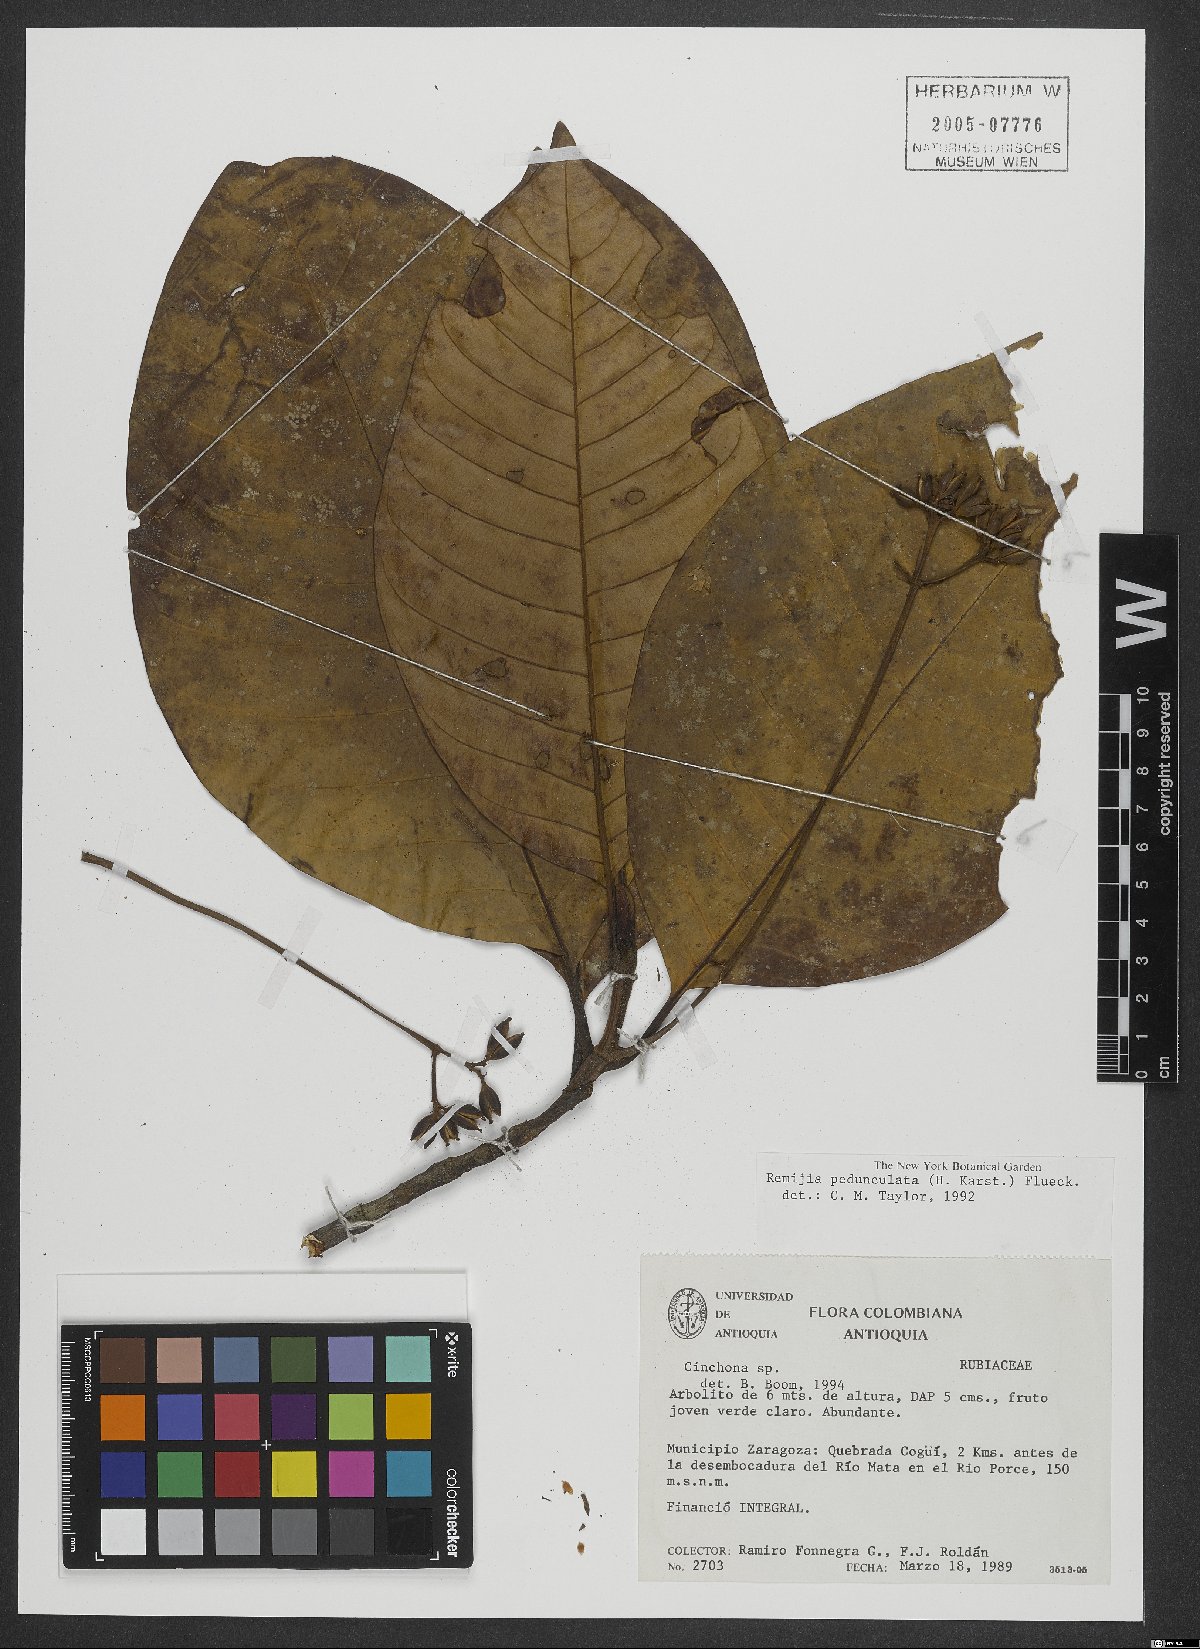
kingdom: Plantae
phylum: Tracheophyta
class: Magnoliopsida
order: Gentianales
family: Rubiaceae
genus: Ciliosemina
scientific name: Ciliosemina pedunculata
